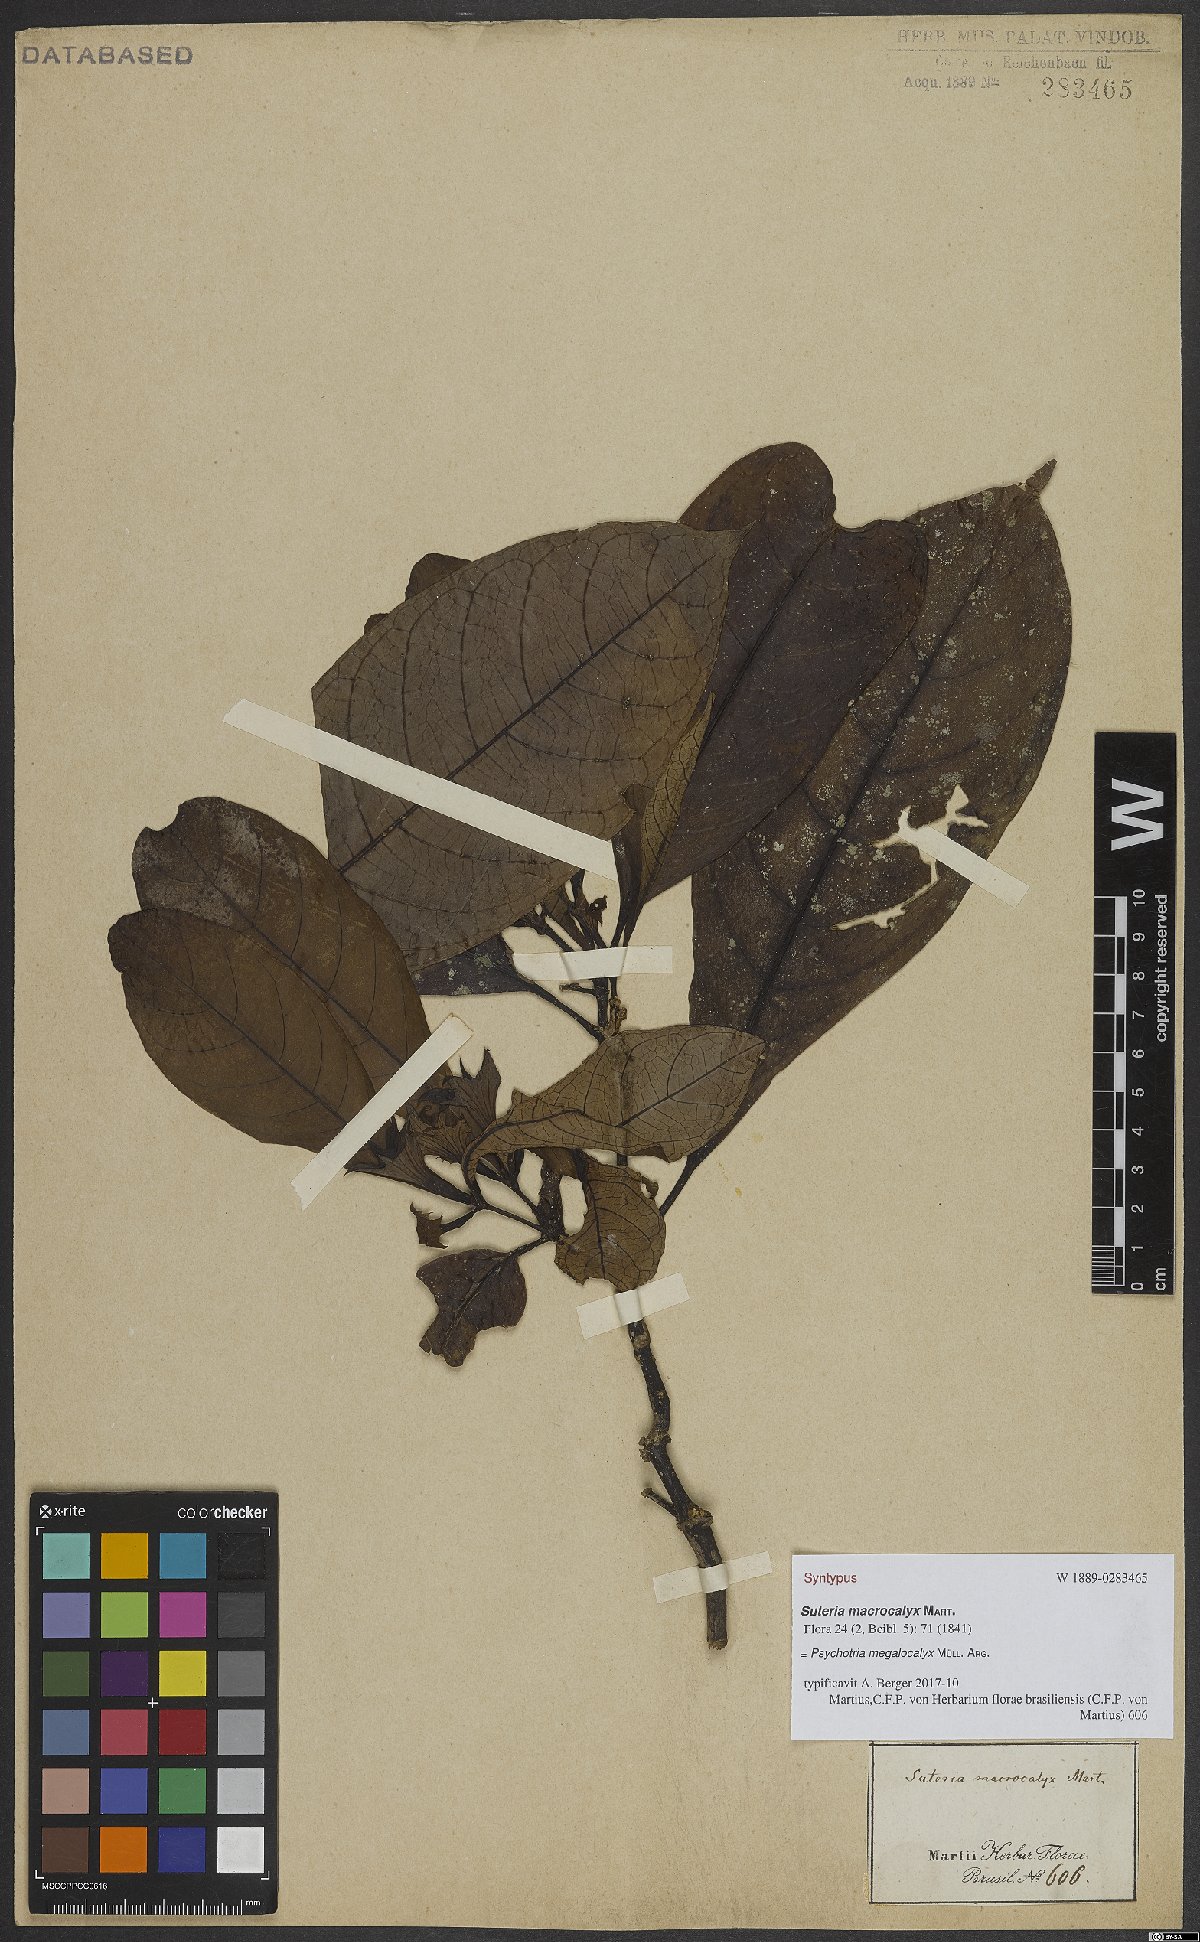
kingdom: Plantae
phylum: Tracheophyta
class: Magnoliopsida
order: Gentianales
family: Rubiaceae
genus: Psychotria
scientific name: Psychotria megalocalyx
